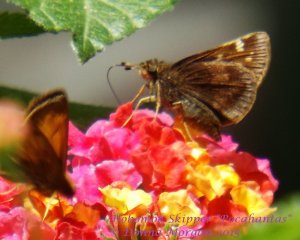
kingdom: Animalia
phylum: Arthropoda
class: Insecta
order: Lepidoptera
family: Hesperiidae
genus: Lon
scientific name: Lon hobomok
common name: Hobomok Skipper
